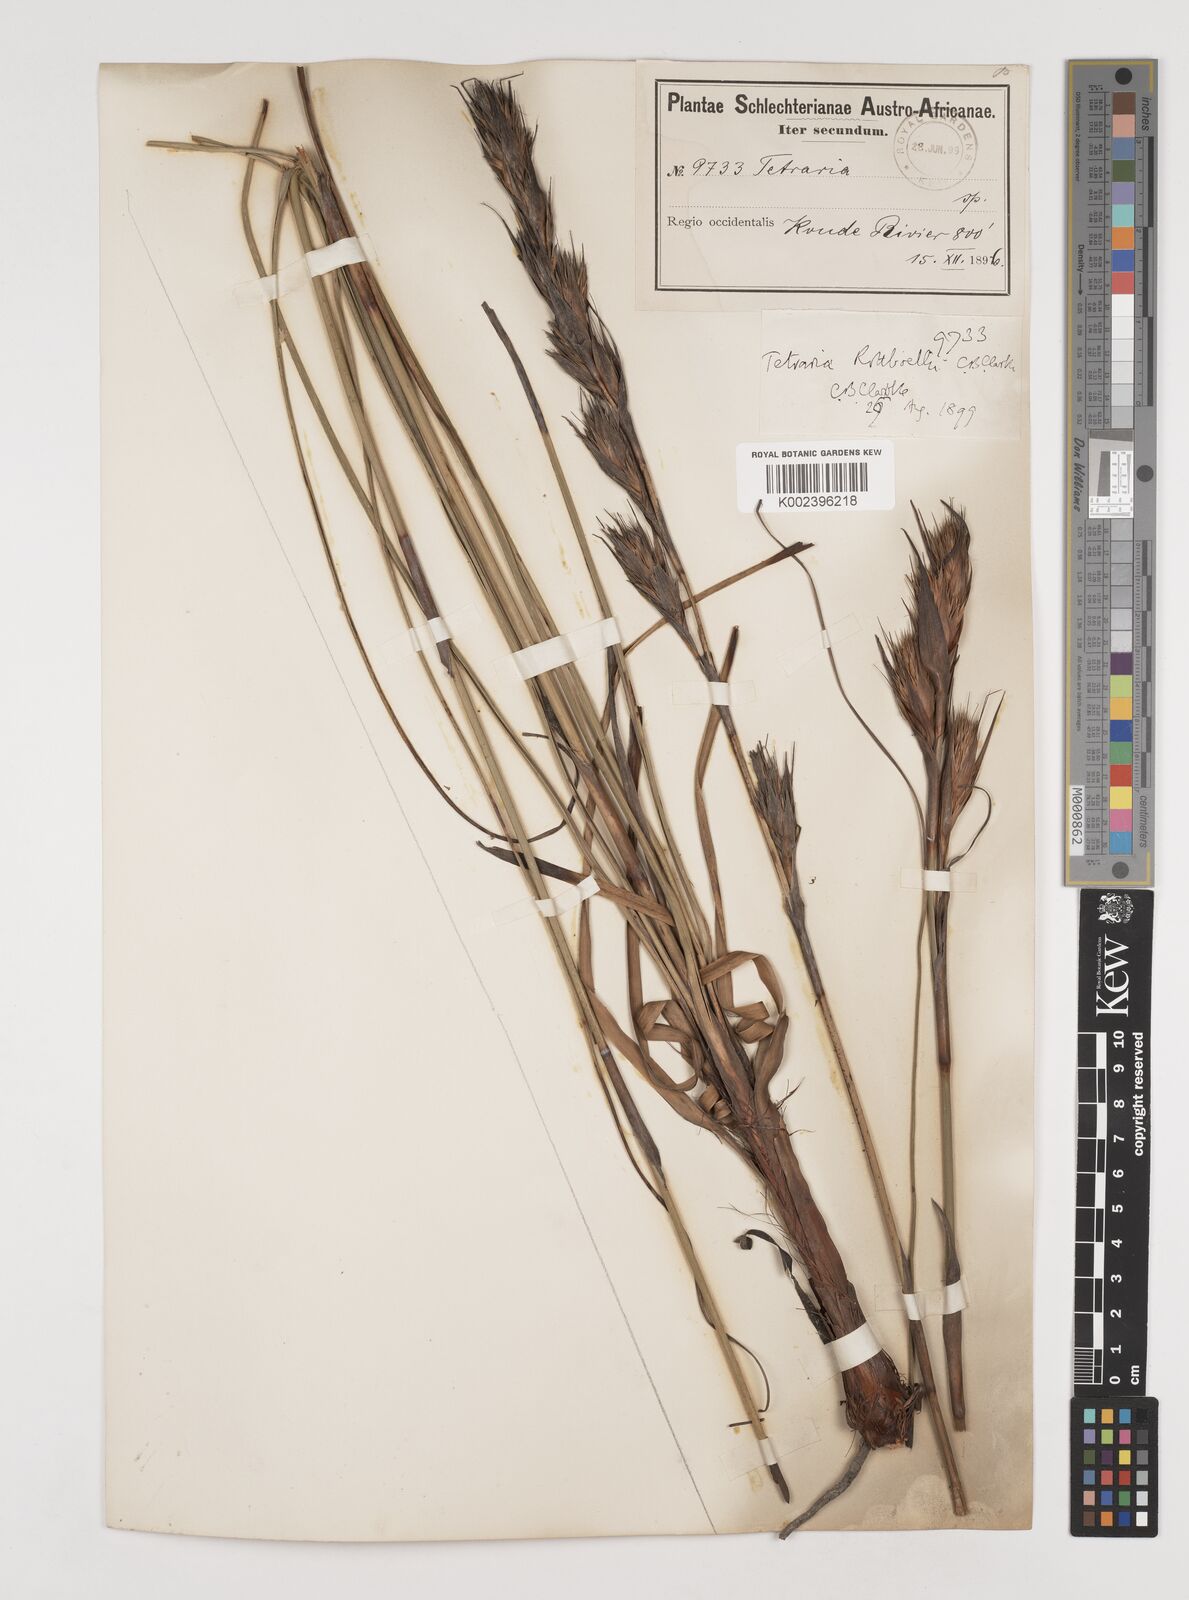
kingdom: Plantae
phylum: Tracheophyta
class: Liliopsida
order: Poales
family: Cyperaceae
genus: Tetraria
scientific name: Tetraria bromoides
